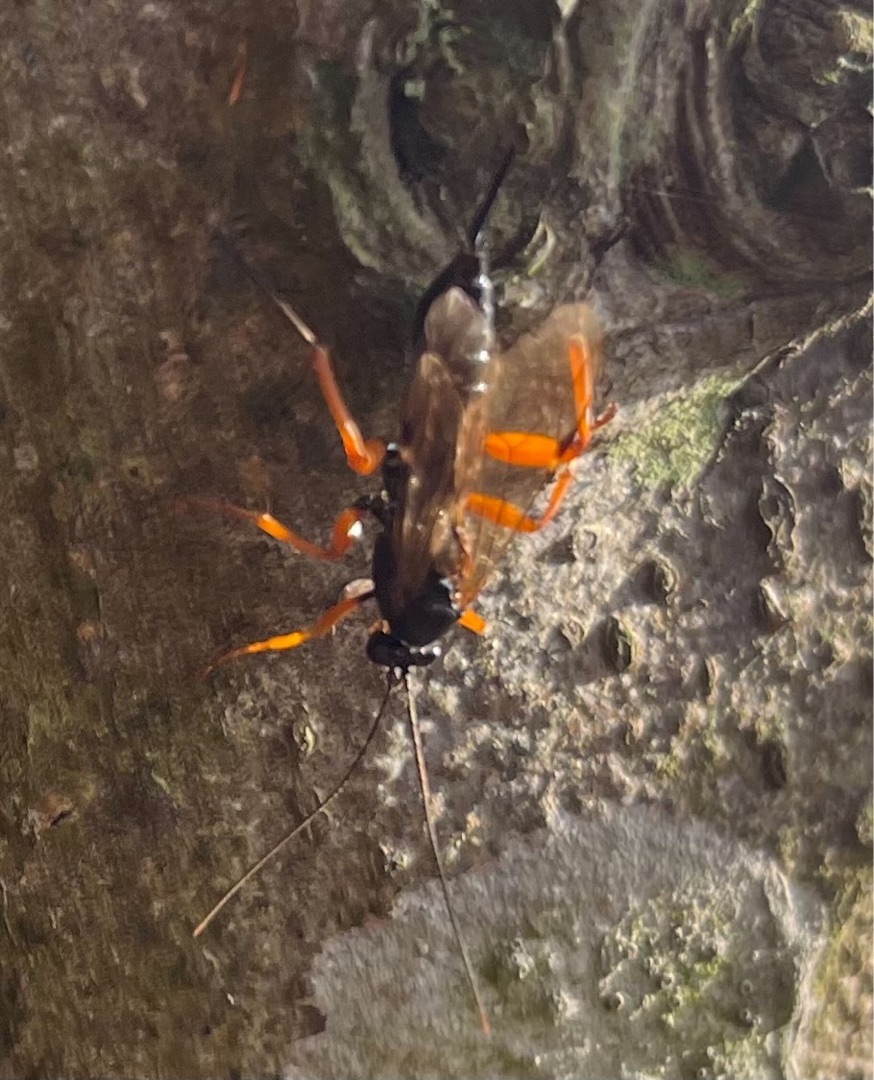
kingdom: Animalia
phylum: Arthropoda
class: Insecta
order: Hymenoptera
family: Ichneumonidae
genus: Pimpla
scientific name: Pimpla rufipes
